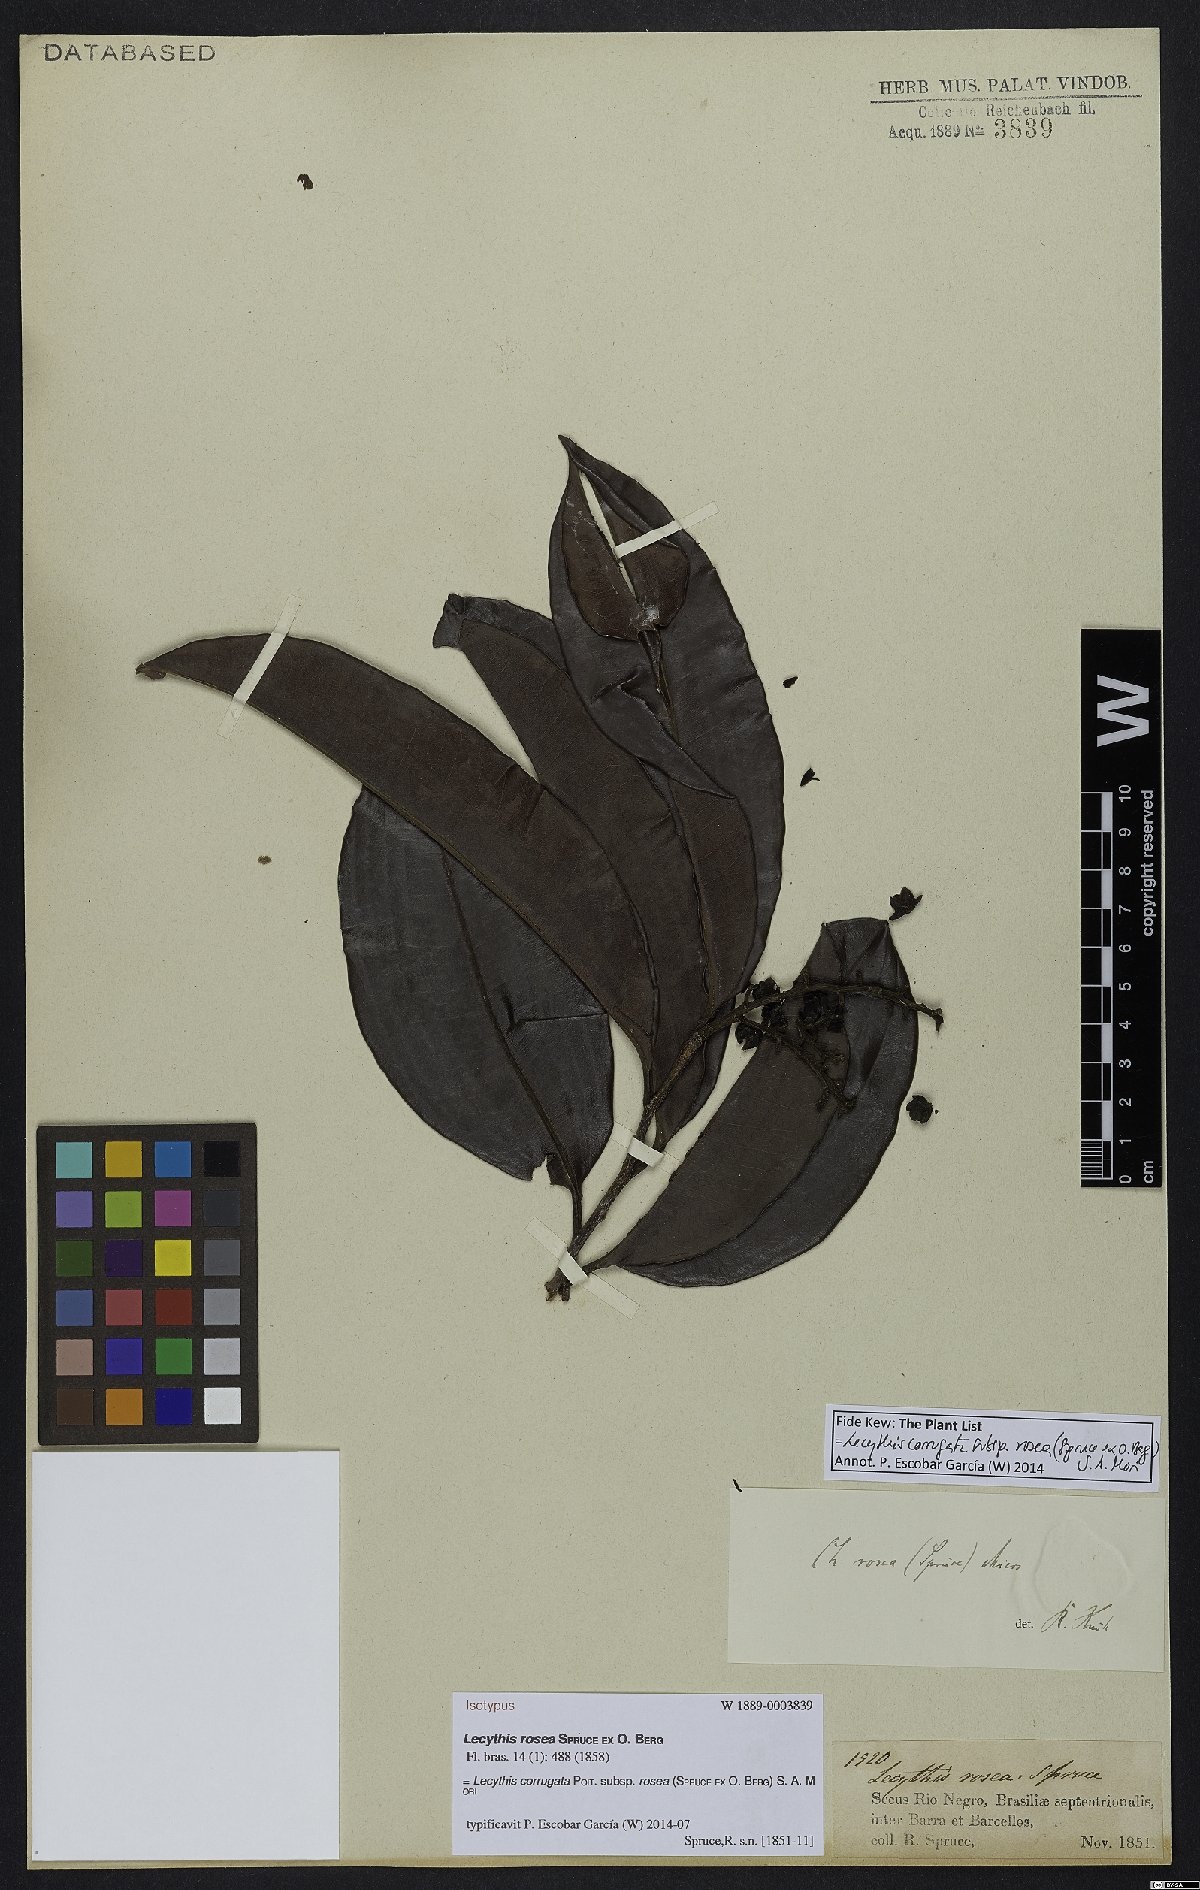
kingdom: Plantae
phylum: Tracheophyta
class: Magnoliopsida
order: Ericales
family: Lecythidaceae
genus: Lecythis
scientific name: Lecythis corrugata
